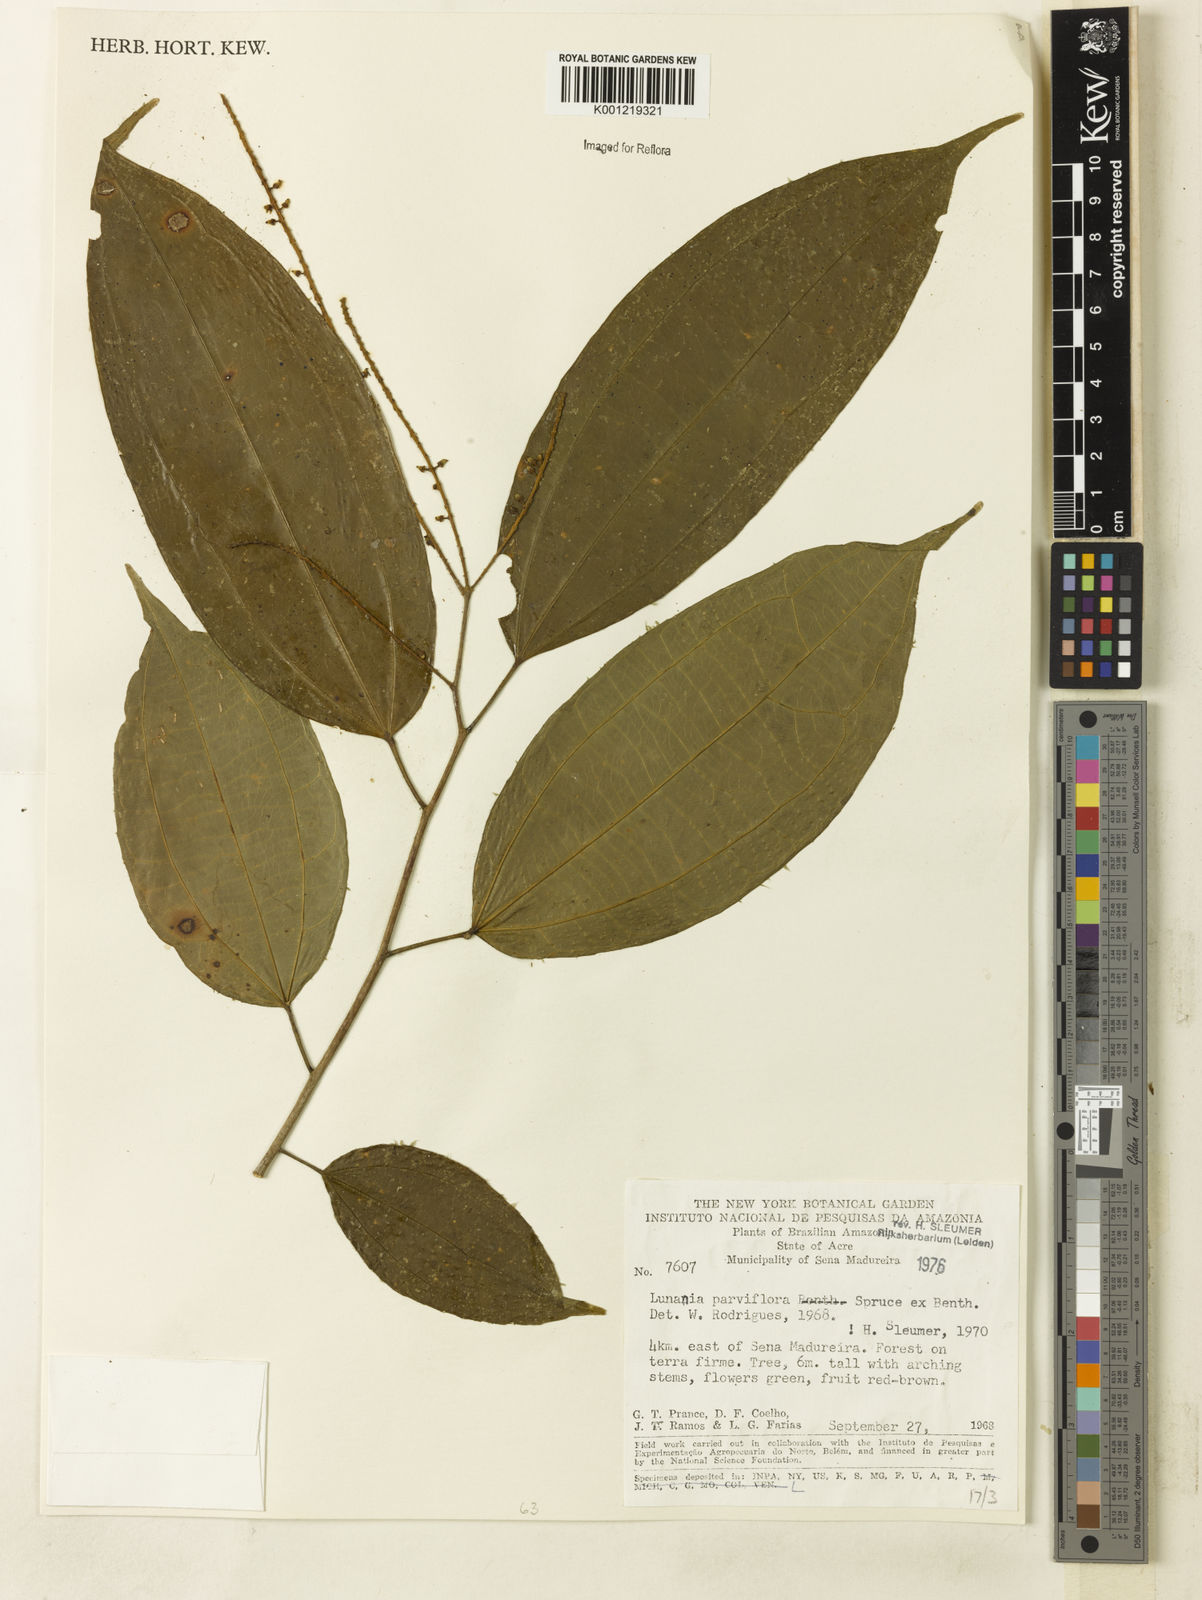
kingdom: Plantae
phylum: Tracheophyta
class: Magnoliopsida
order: Malpighiales
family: Salicaceae
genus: Lunania
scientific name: Lunania parviflora
